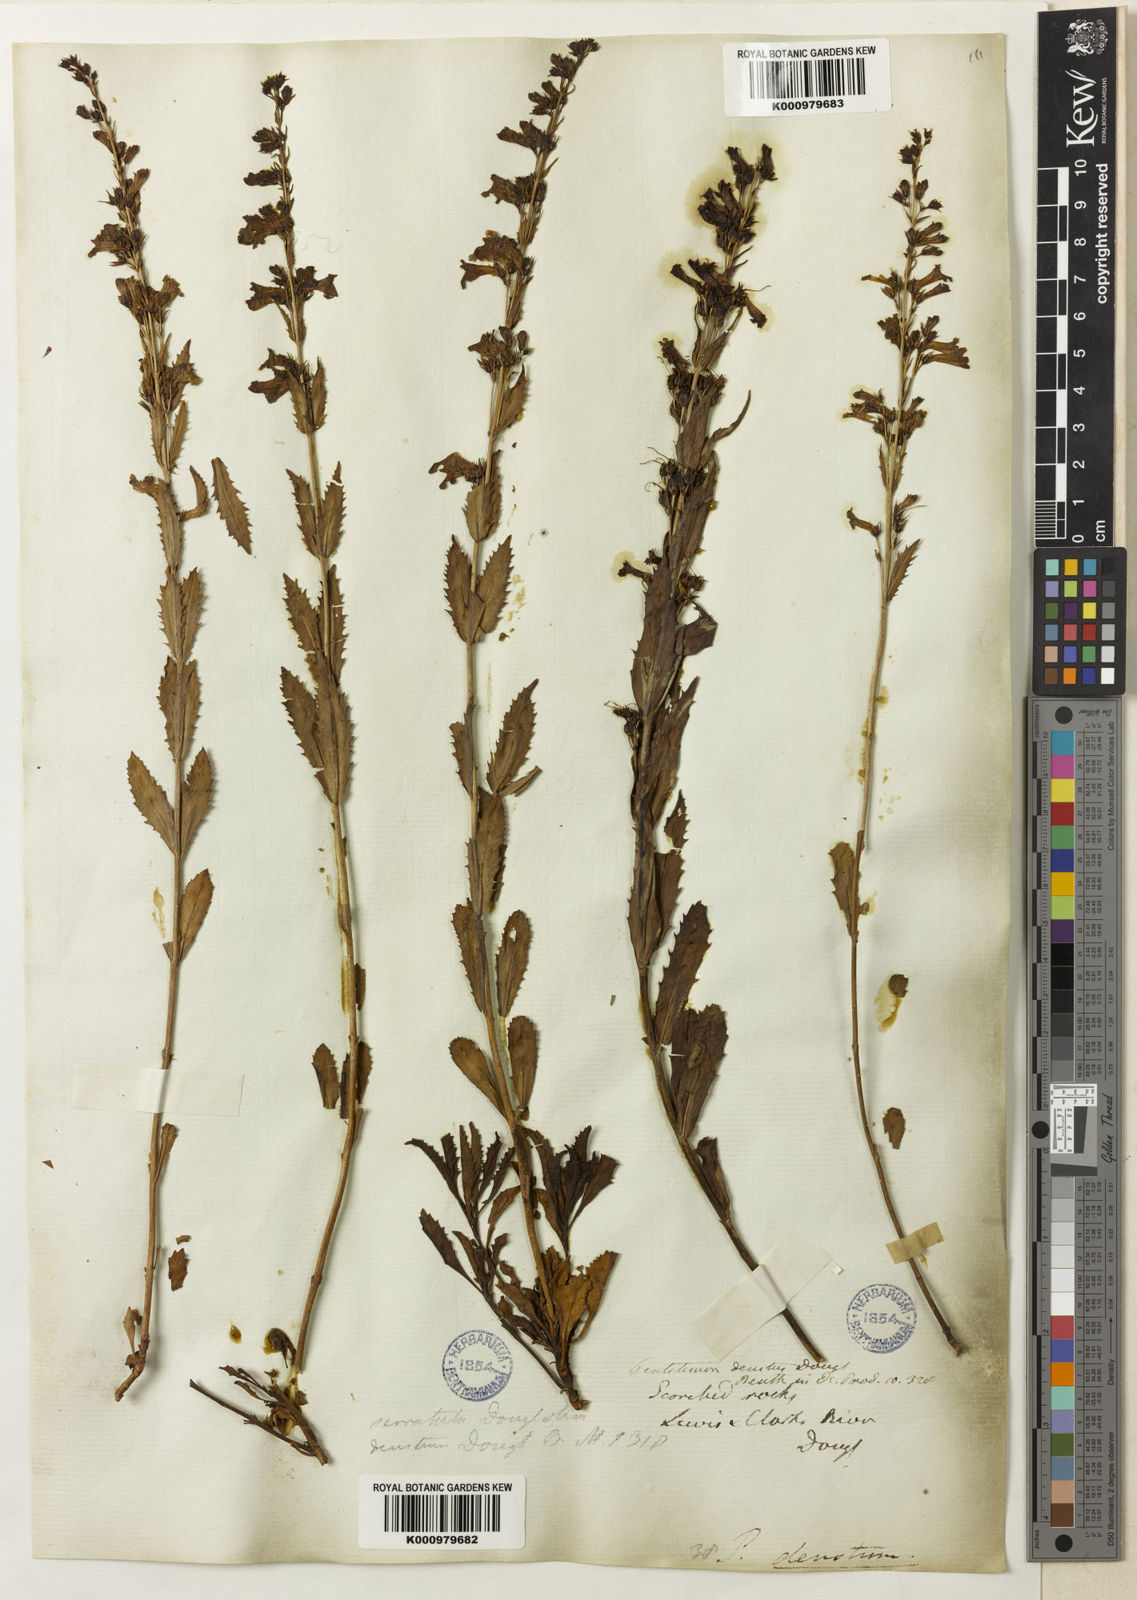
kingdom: Plantae
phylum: Tracheophyta
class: Magnoliopsida
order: Lamiales
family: Plantaginaceae
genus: Penstemon
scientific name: Penstemon
